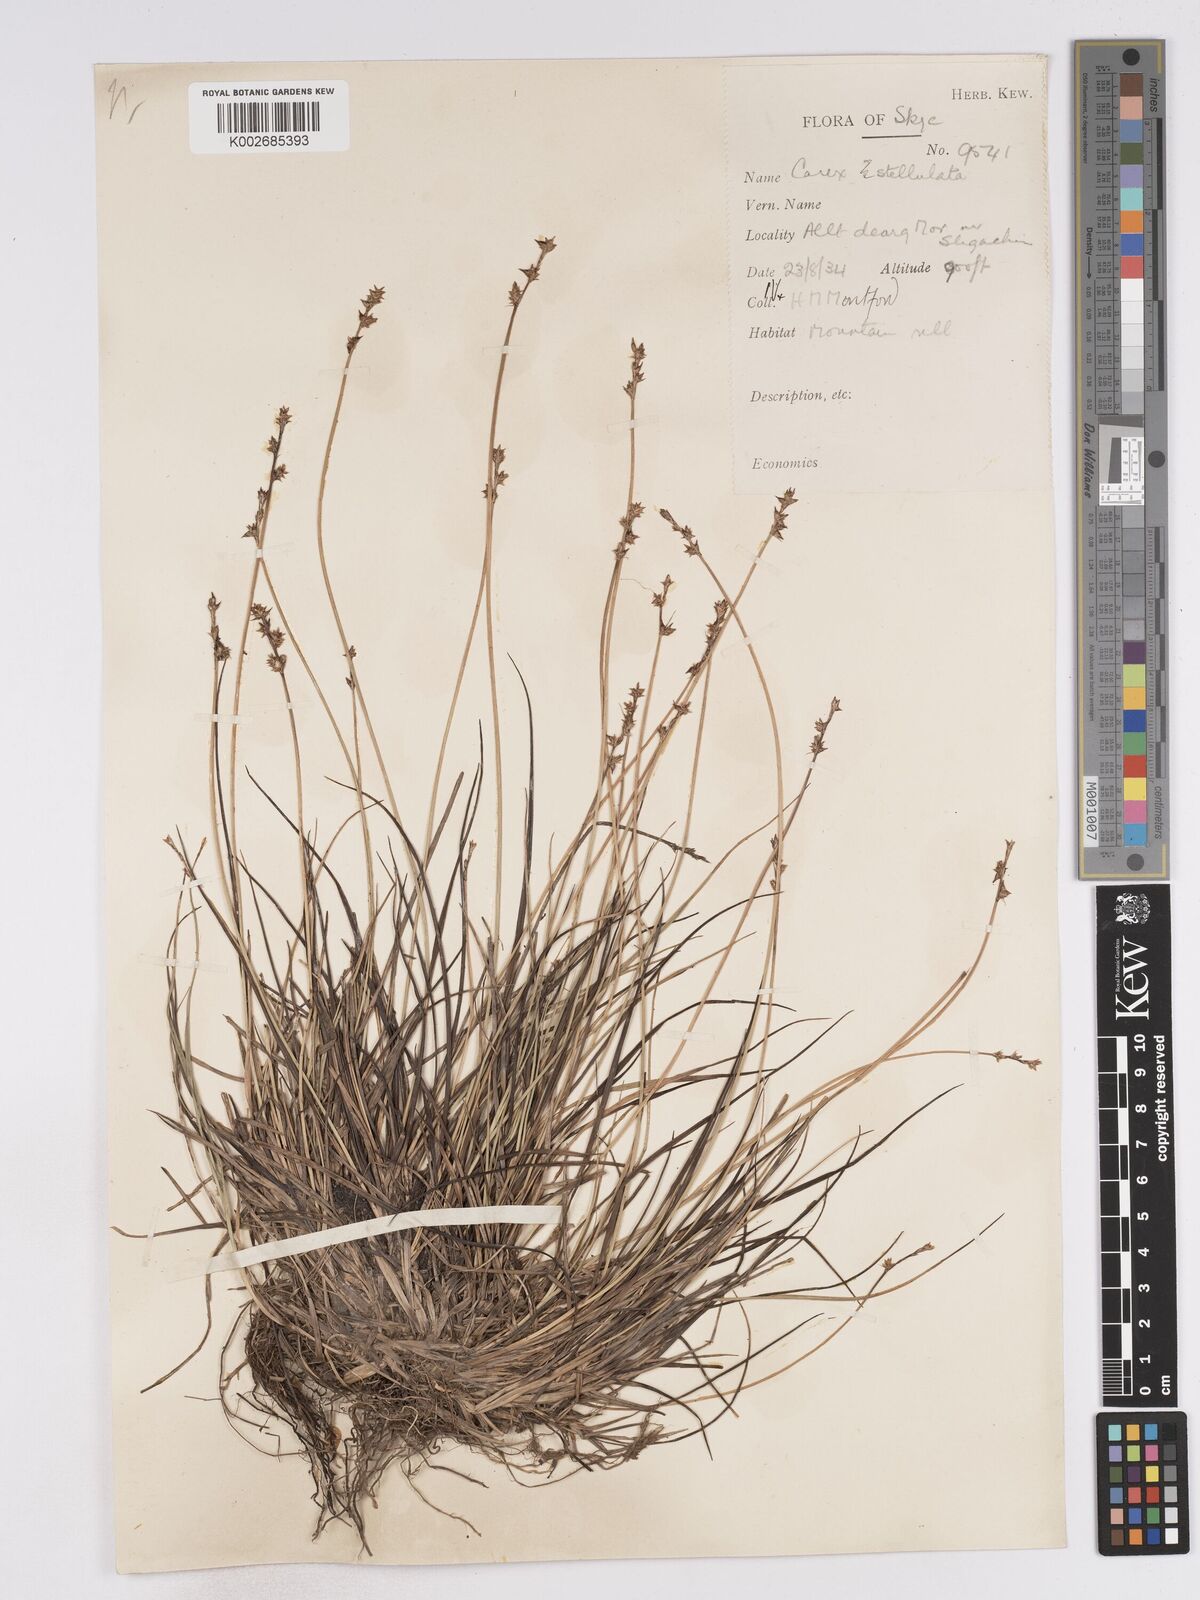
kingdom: Plantae
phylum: Tracheophyta
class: Liliopsida
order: Poales
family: Cyperaceae
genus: Carex
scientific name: Carex echinata
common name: Star sedge
